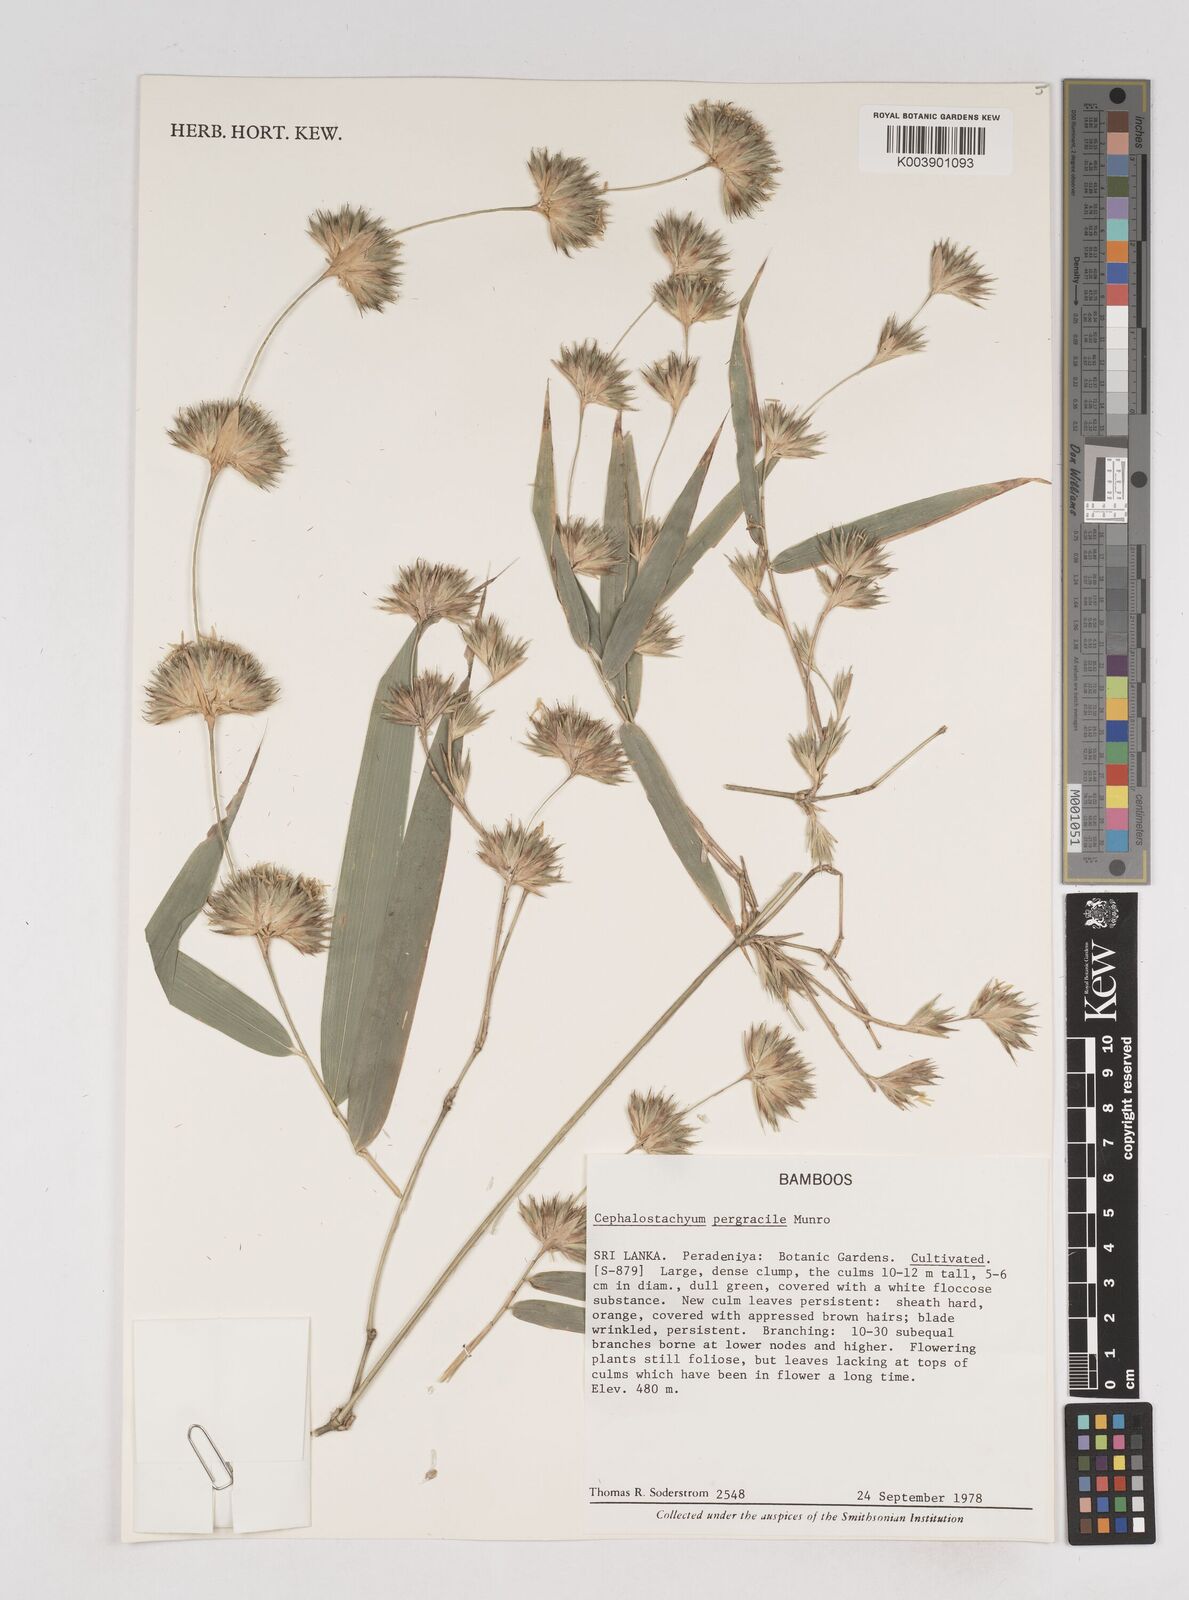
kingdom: Plantae
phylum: Tracheophyta
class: Liliopsida
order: Poales
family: Poaceae
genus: Cephalostachyum
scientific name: Cephalostachyum
